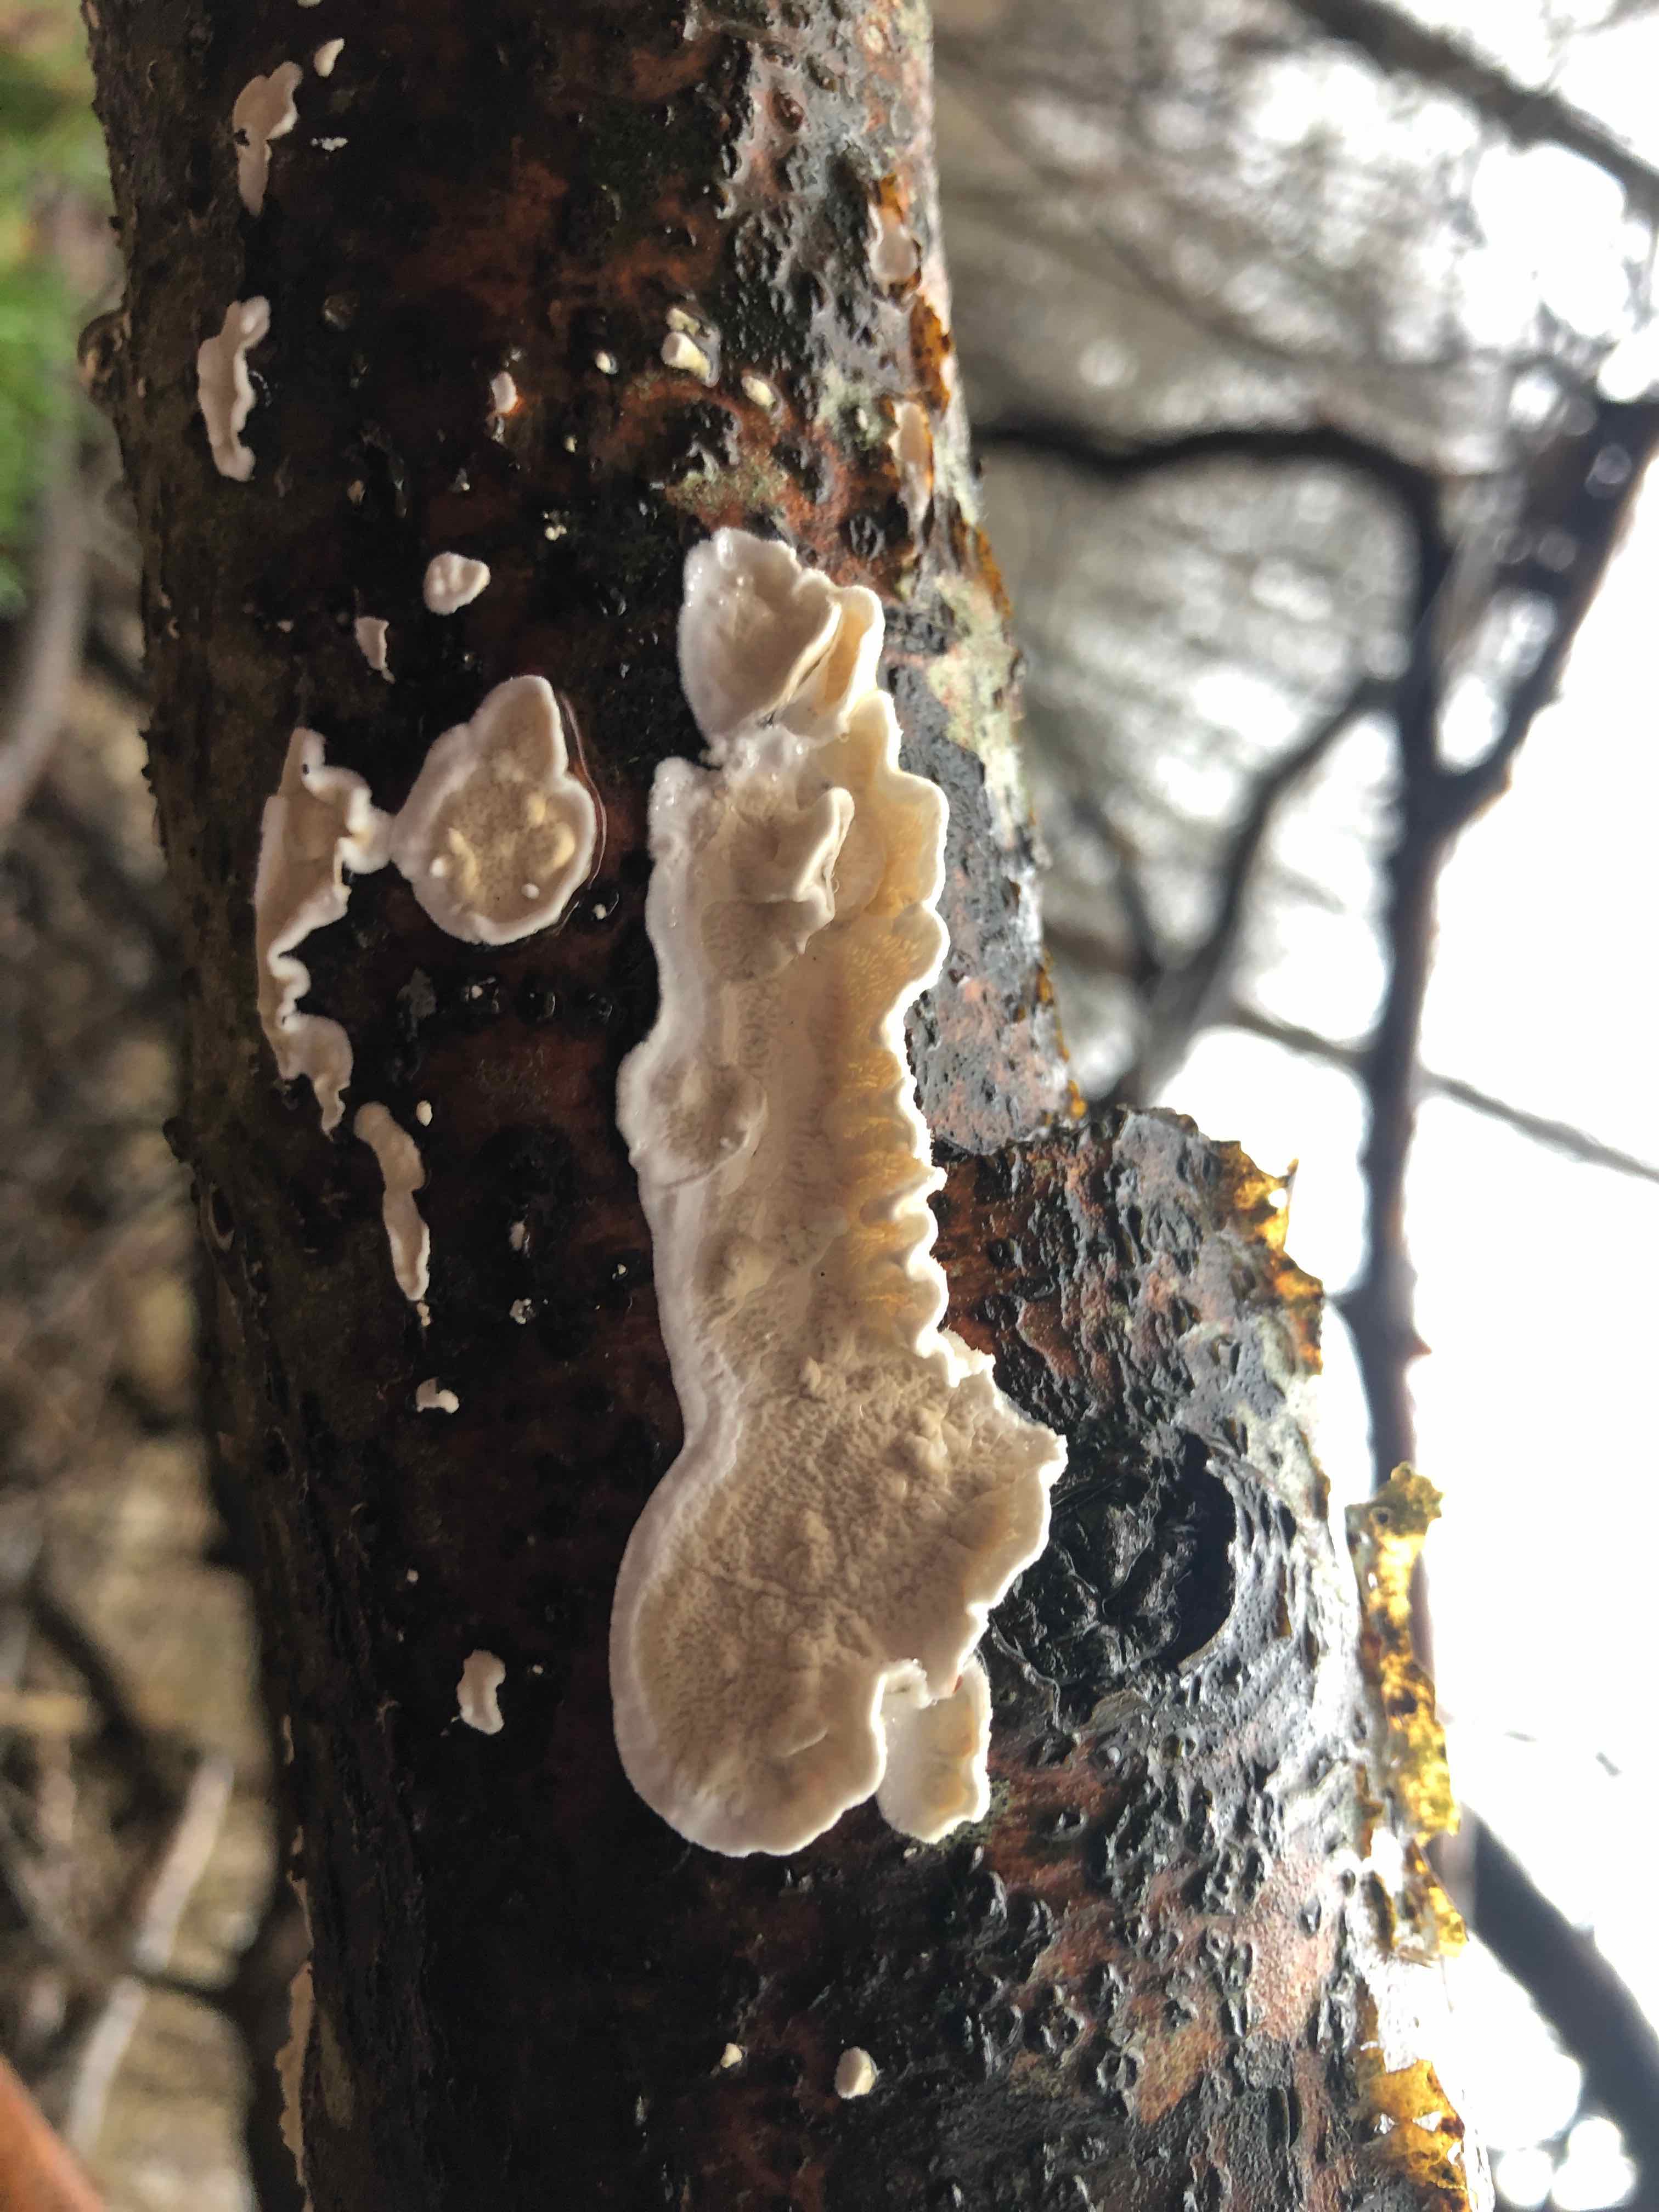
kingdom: Fungi
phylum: Basidiomycota
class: Agaricomycetes
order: Polyporales
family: Irpicaceae
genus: Byssomerulius
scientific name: Byssomerulius corium
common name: læder-åresvamp
